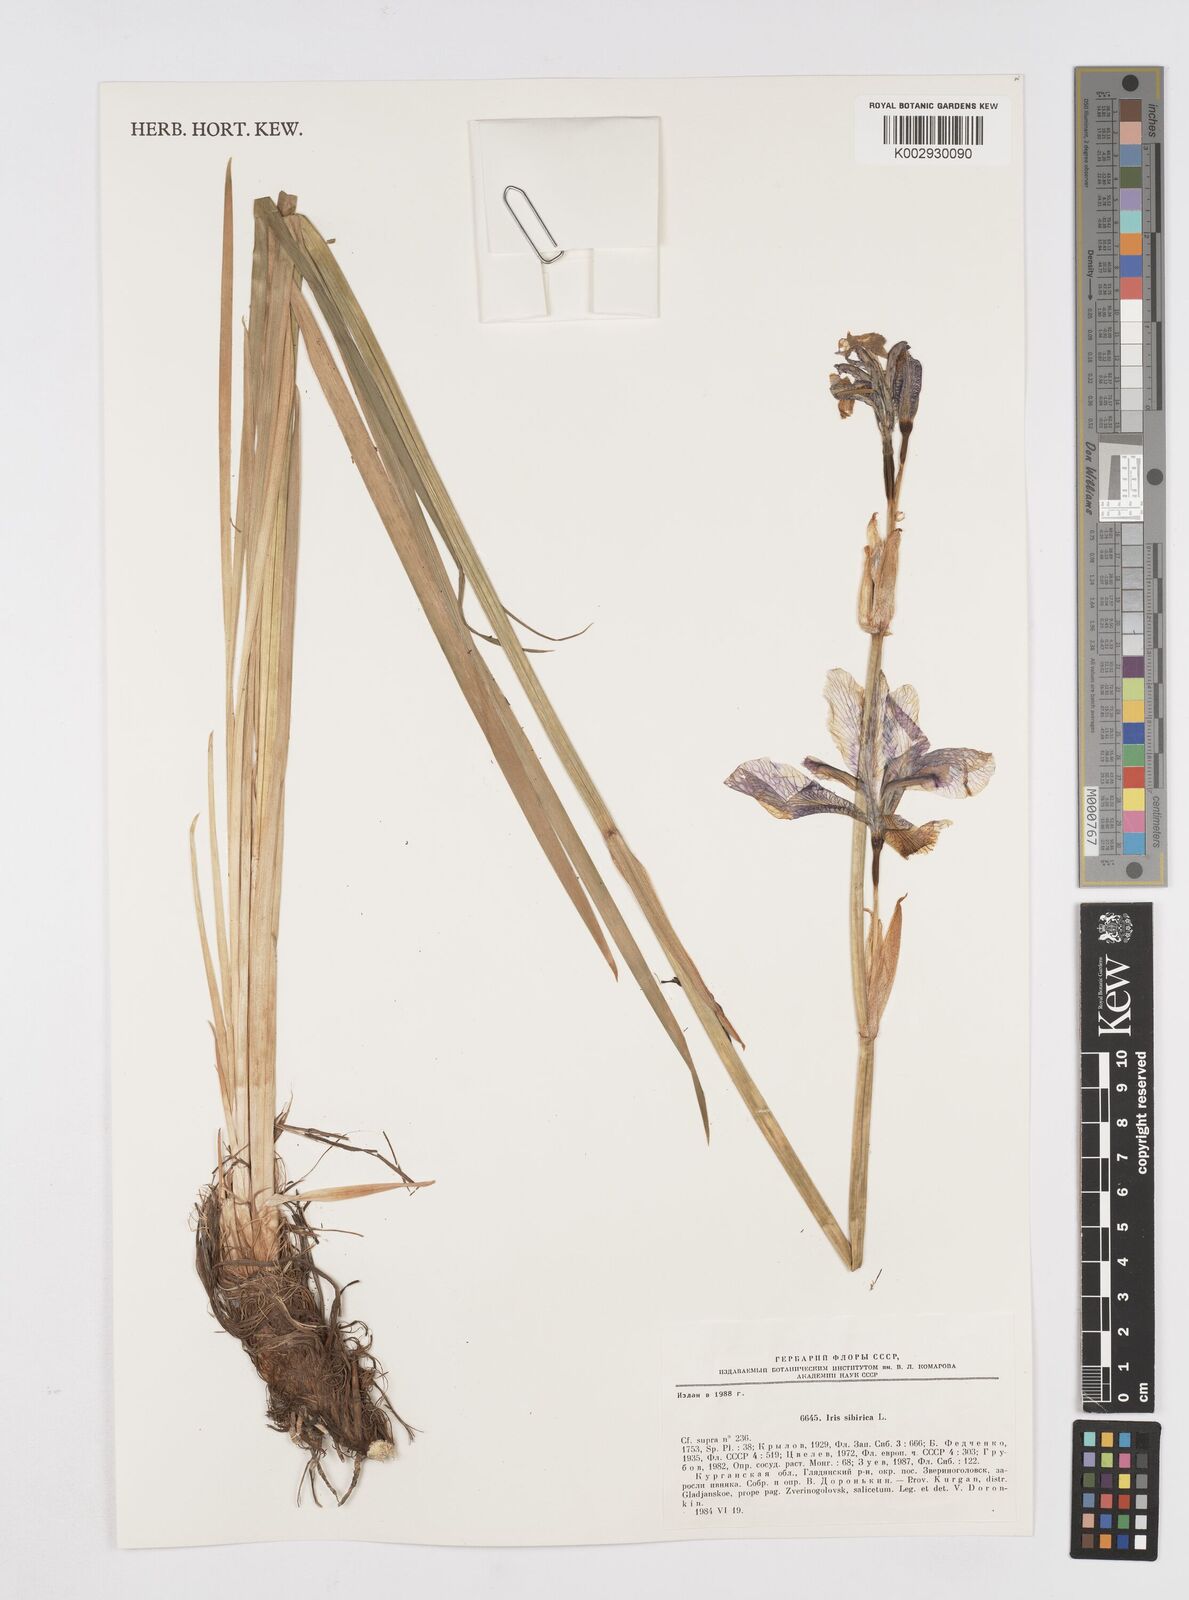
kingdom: Plantae
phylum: Tracheophyta
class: Liliopsida
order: Asparagales
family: Iridaceae
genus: Iris
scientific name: Iris sibirica
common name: Siberian iris
